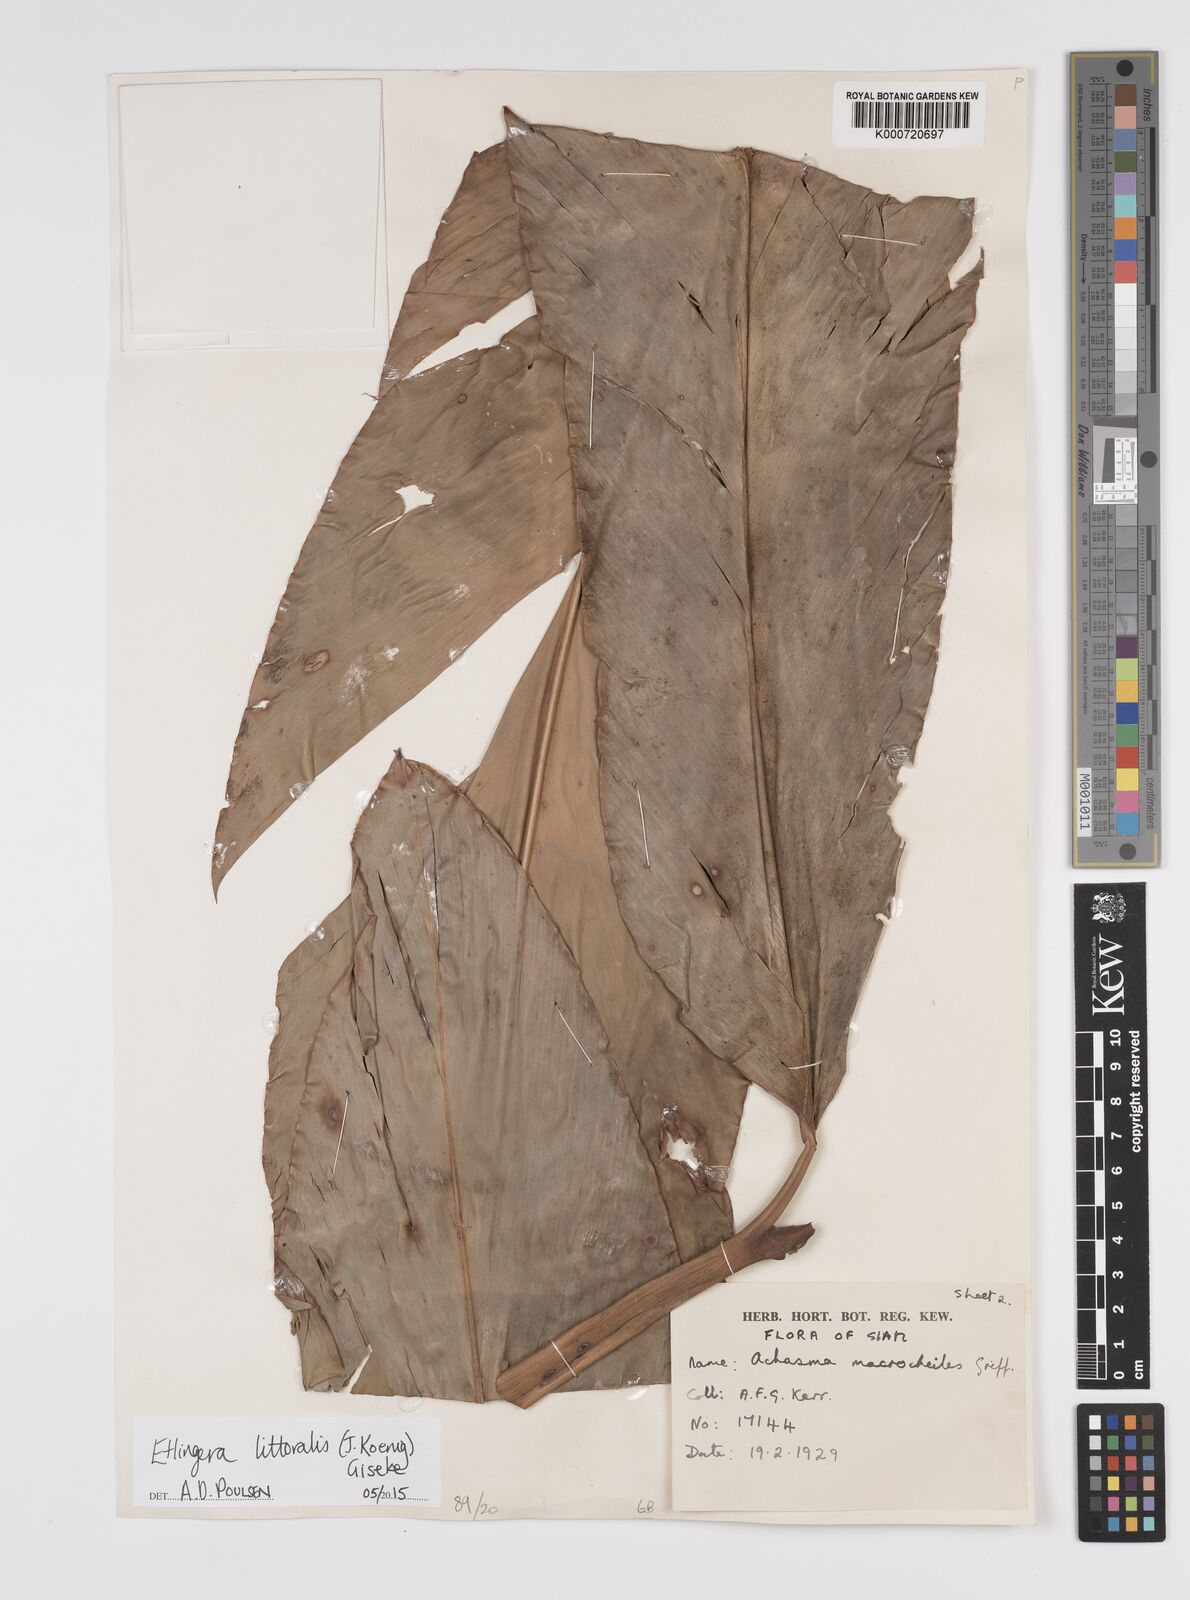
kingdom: Plantae
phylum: Tracheophyta
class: Liliopsida
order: Zingiberales
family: Zingiberaceae
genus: Etlingera
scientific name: Etlingera littoralis
